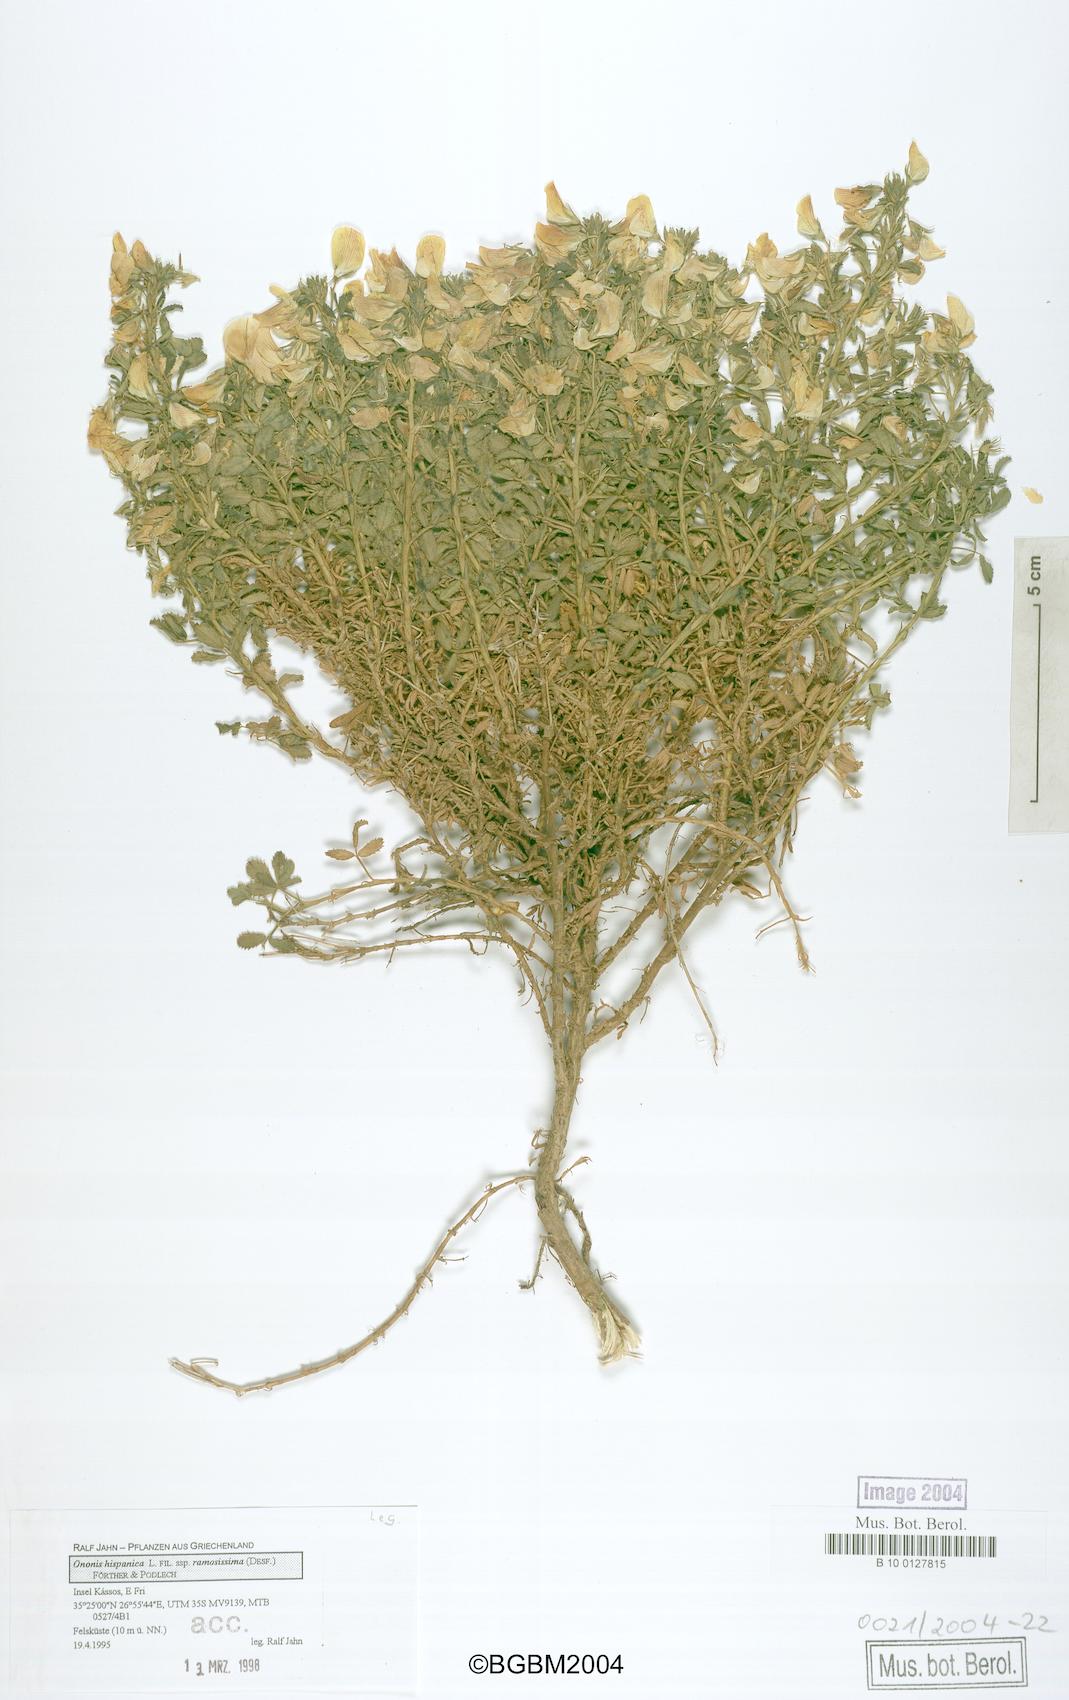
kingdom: Plantae
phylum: Tracheophyta
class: Magnoliopsida
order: Fabales
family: Fabaceae
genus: Ononis
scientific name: Ononis natrix
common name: Yellow restharrow
